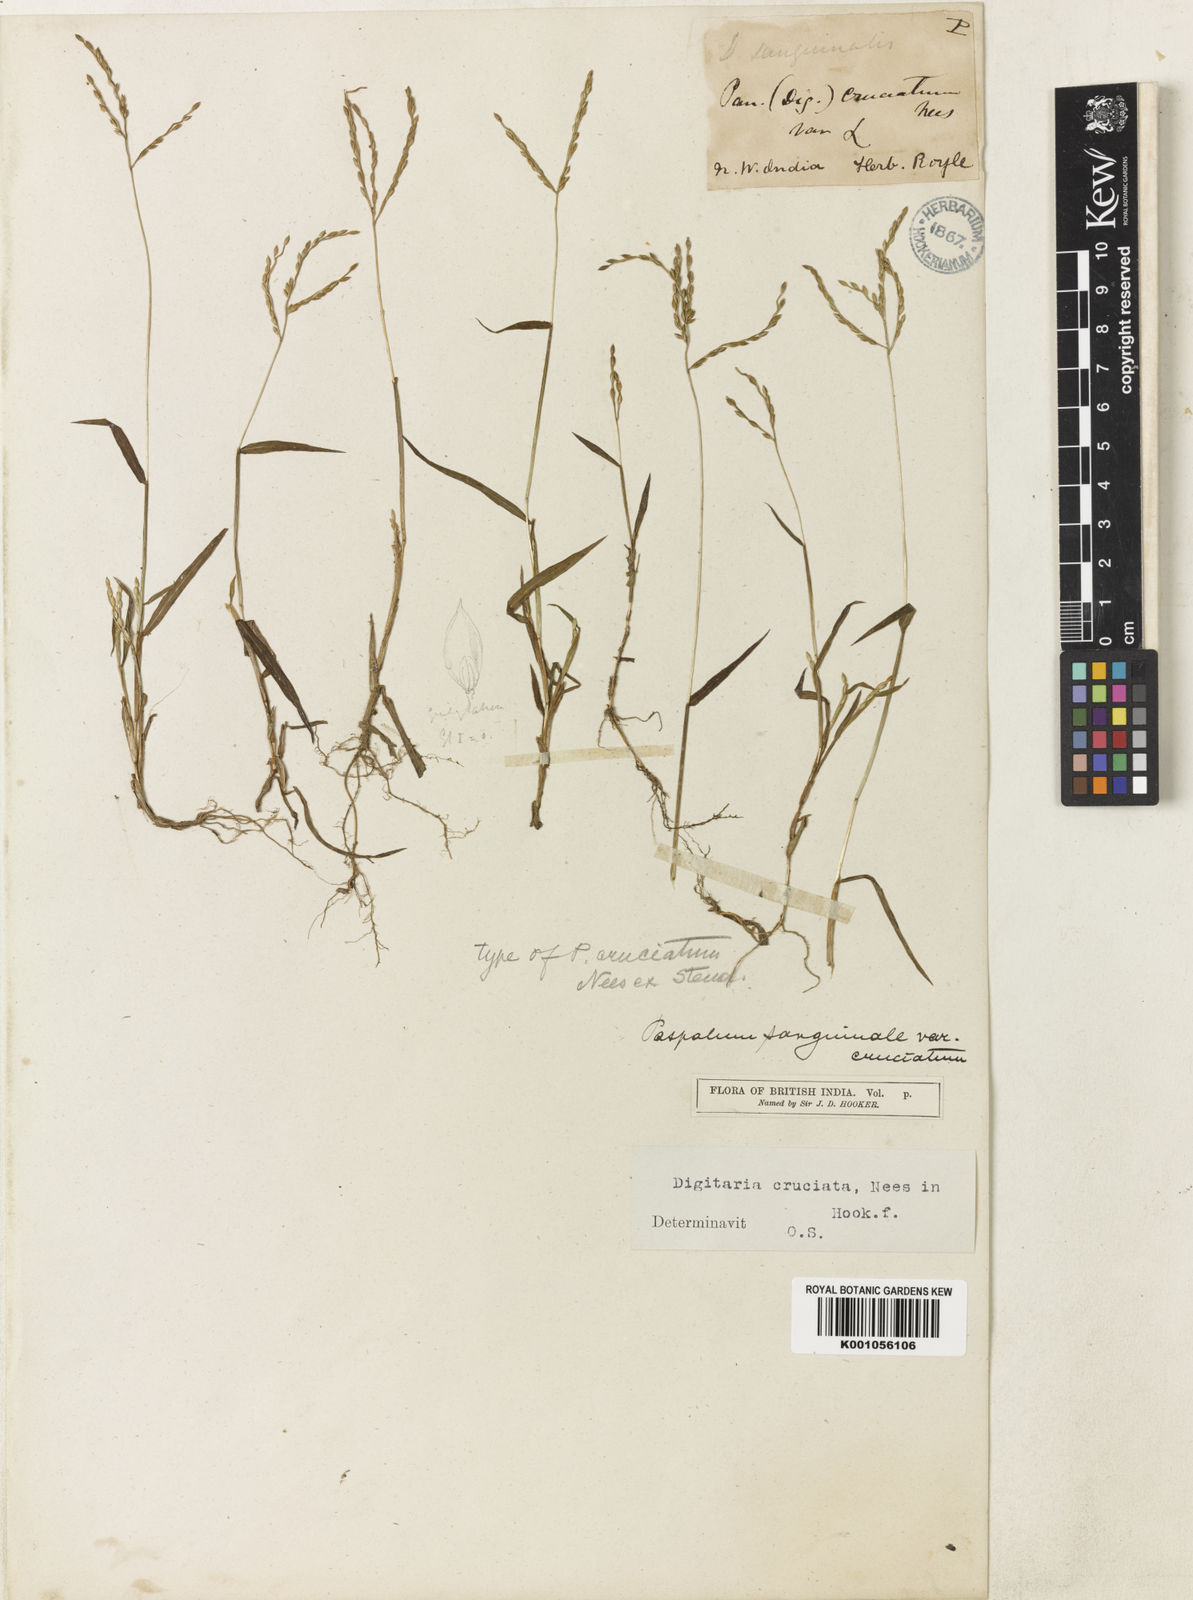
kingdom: Plantae
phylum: Tracheophyta
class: Liliopsida
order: Poales
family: Poaceae
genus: Digitaria
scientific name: Digitaria sanguinalis
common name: Hairy crabgrass
